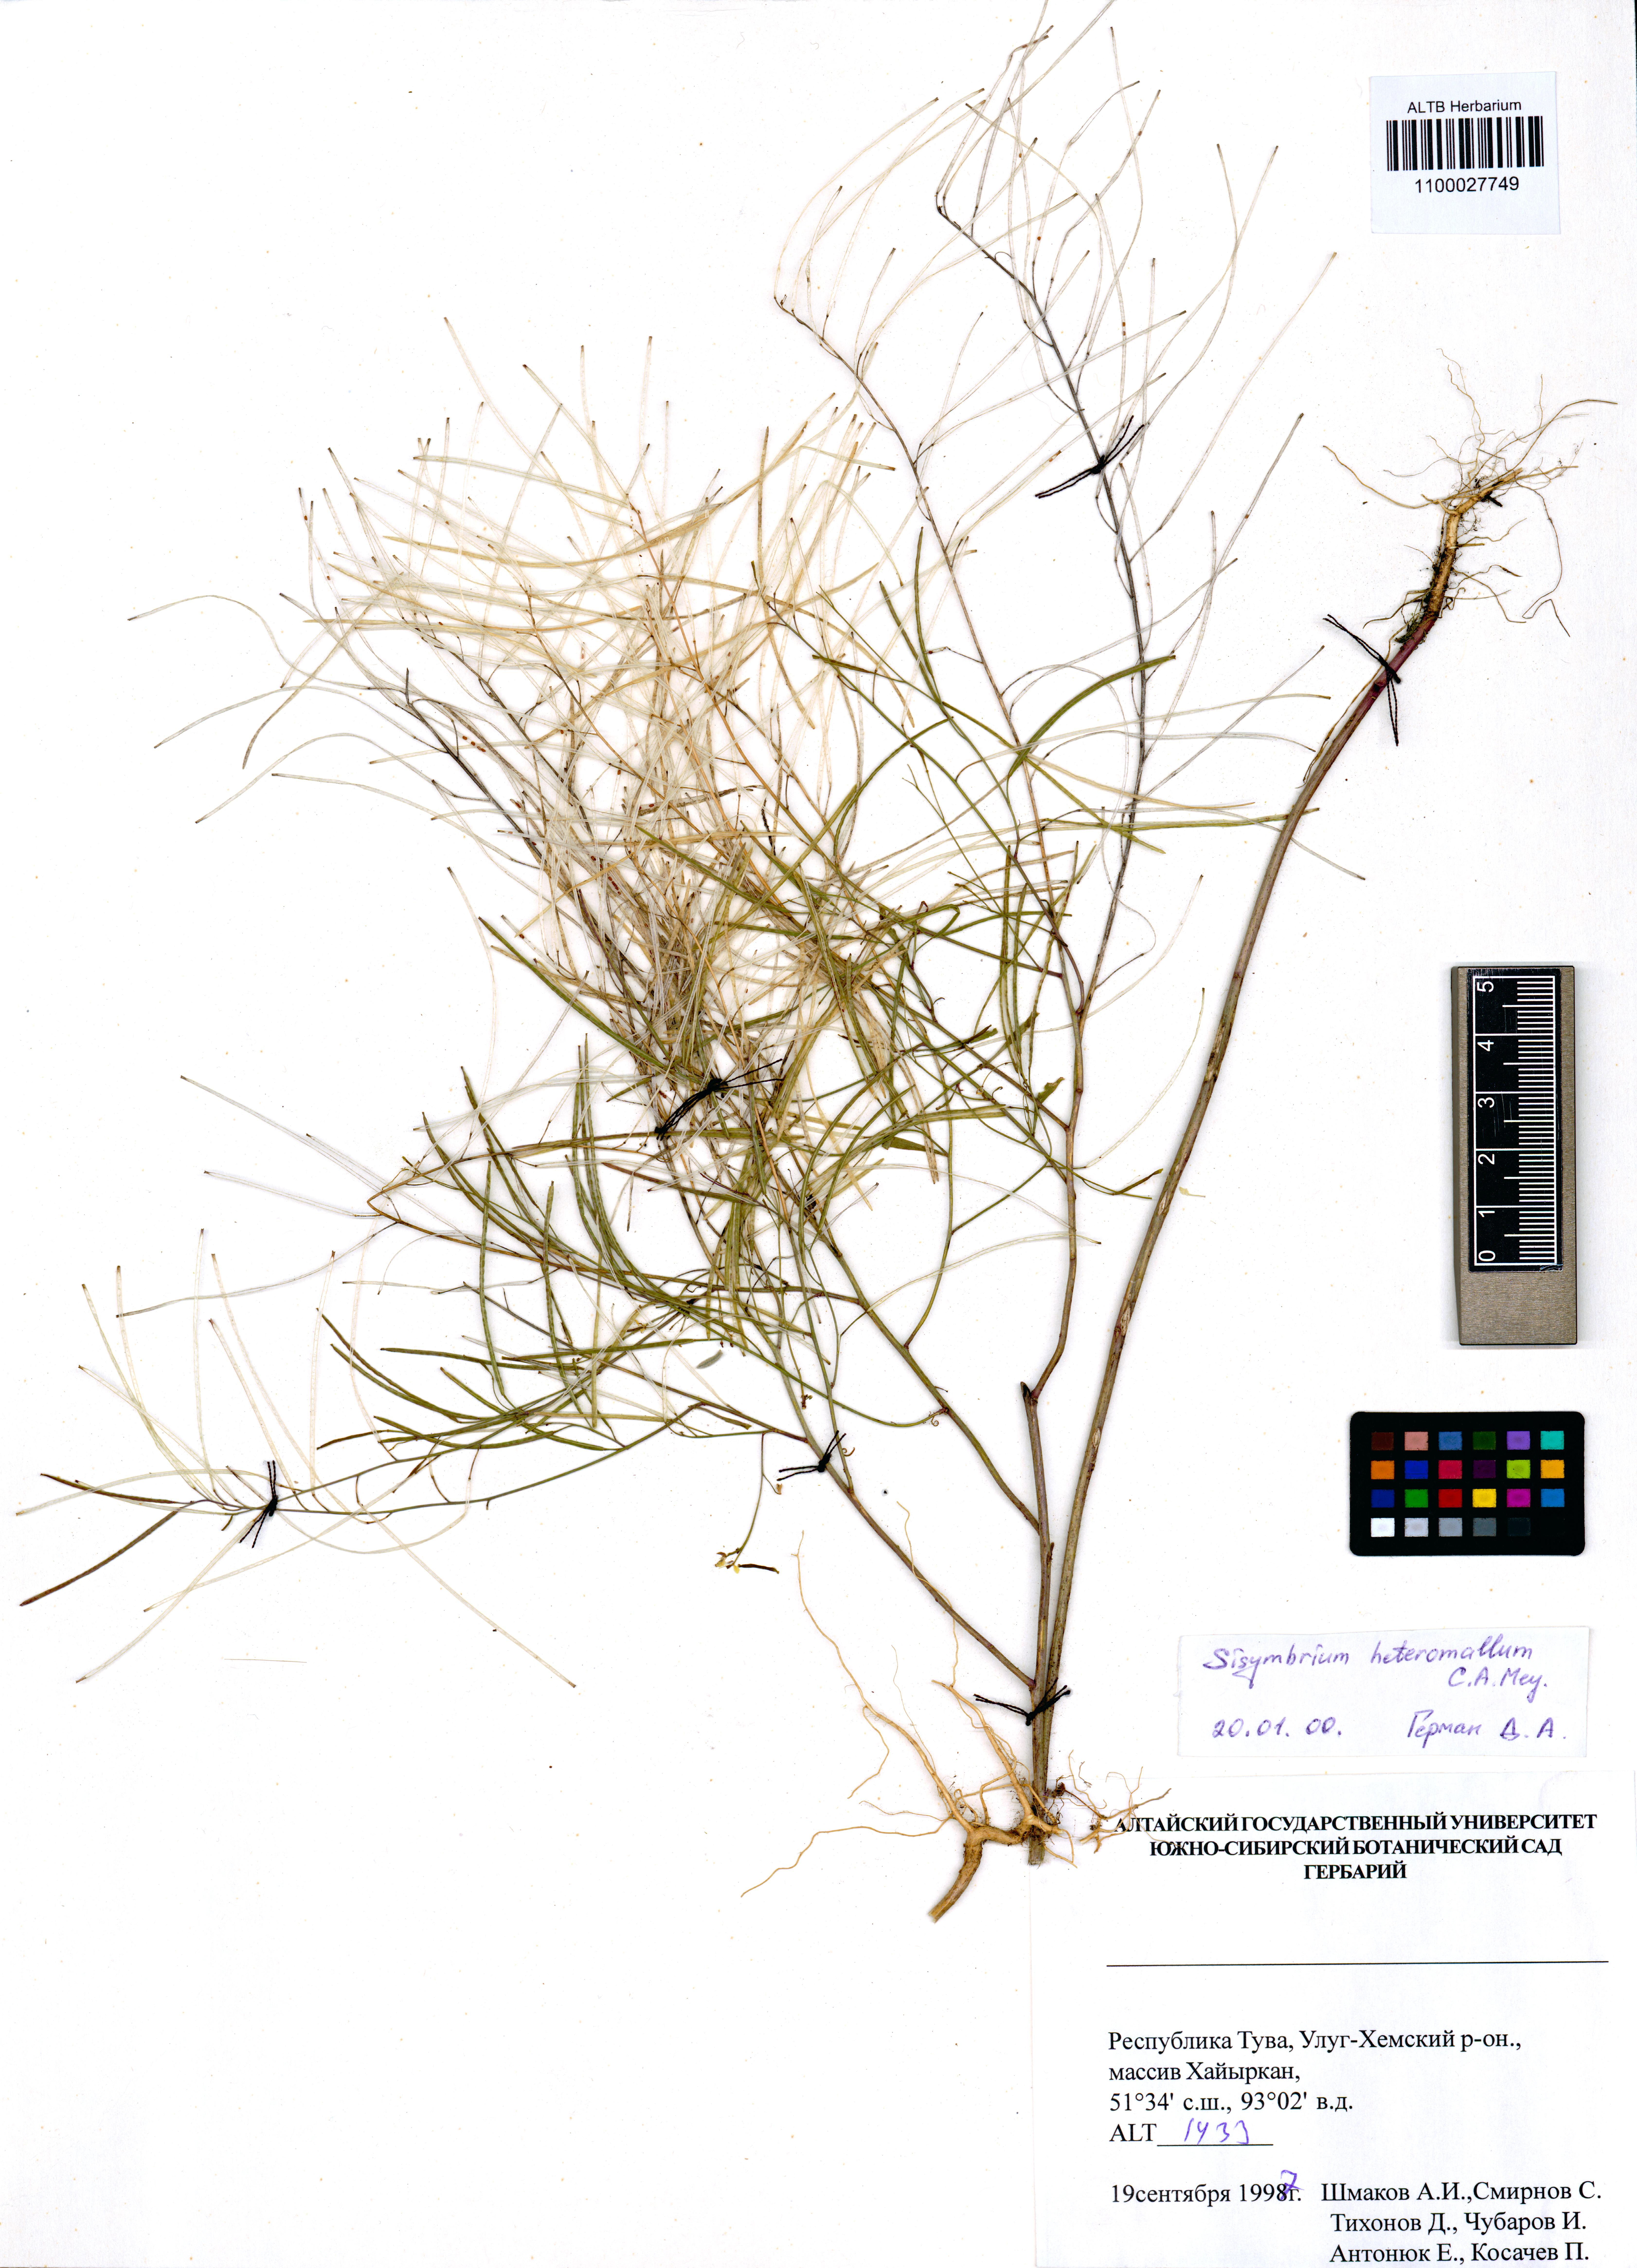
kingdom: Plantae
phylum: Tracheophyta
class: Magnoliopsida
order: Brassicales
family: Brassicaceae
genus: Sisymbrium
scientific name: Sisymbrium heteromallum
